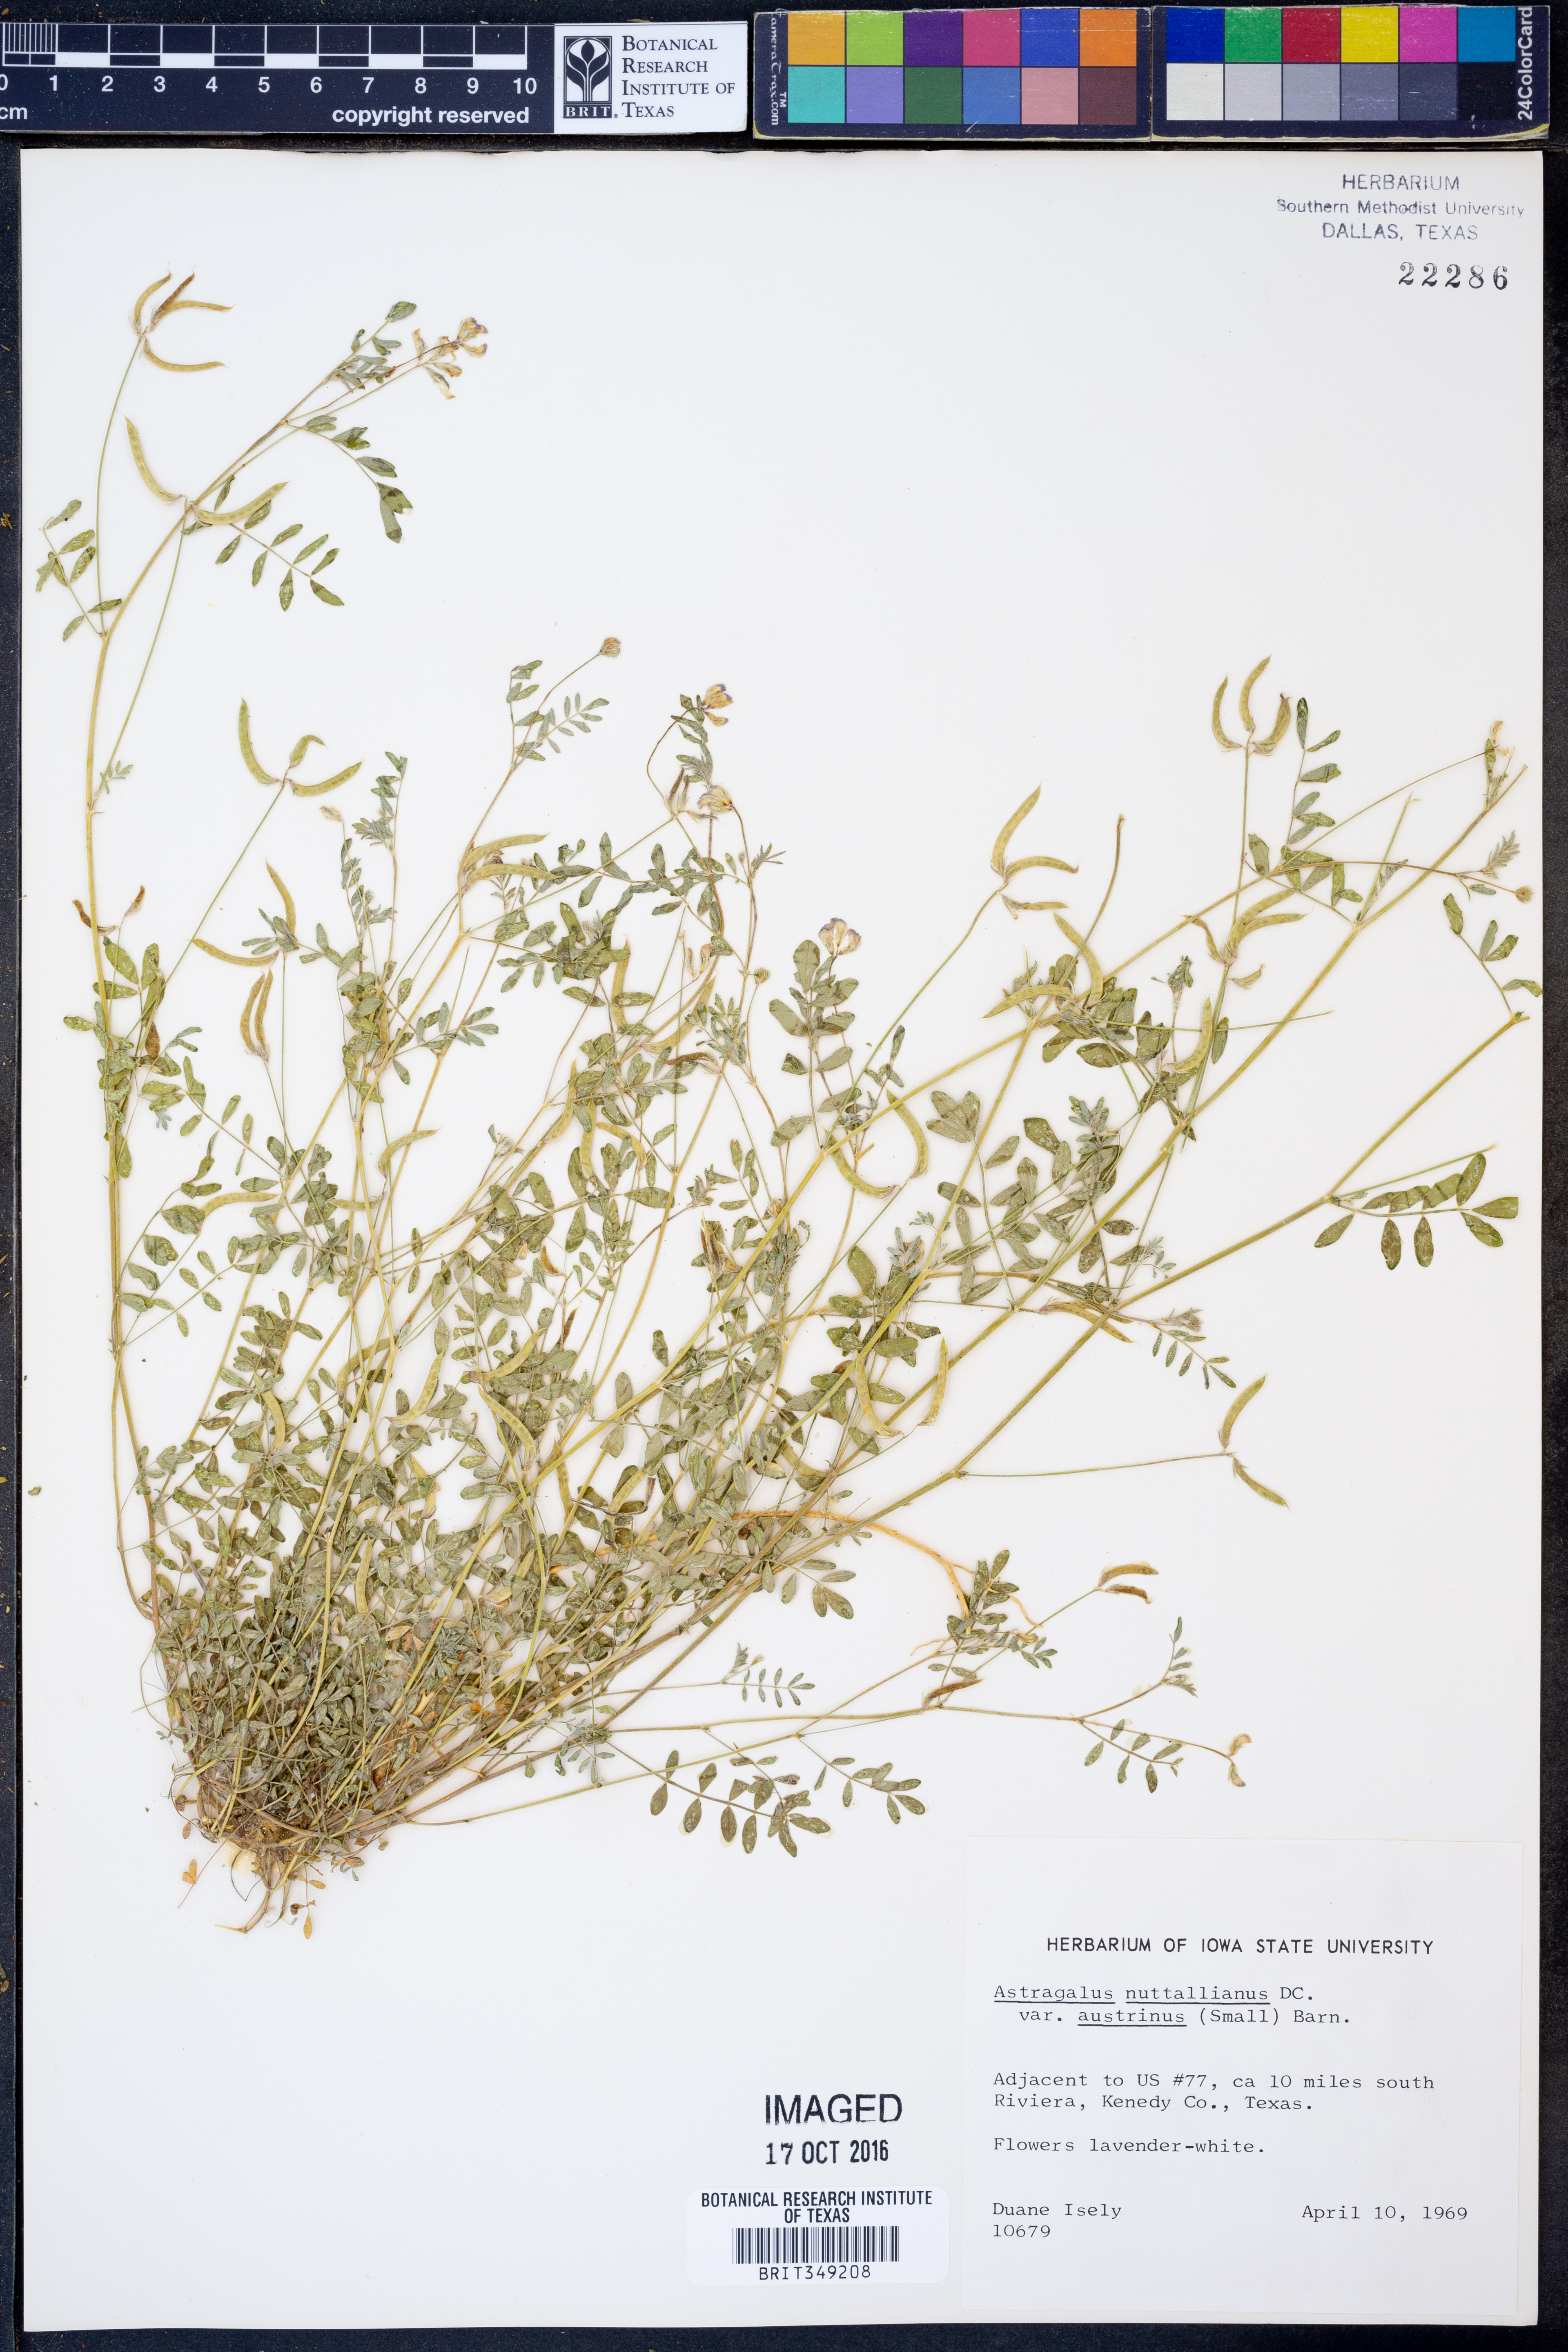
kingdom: Plantae
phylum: Tracheophyta
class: Magnoliopsida
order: Fabales
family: Fabaceae
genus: Astragalus
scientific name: Astragalus nuttallianus
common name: Smallflowered milkvetch
